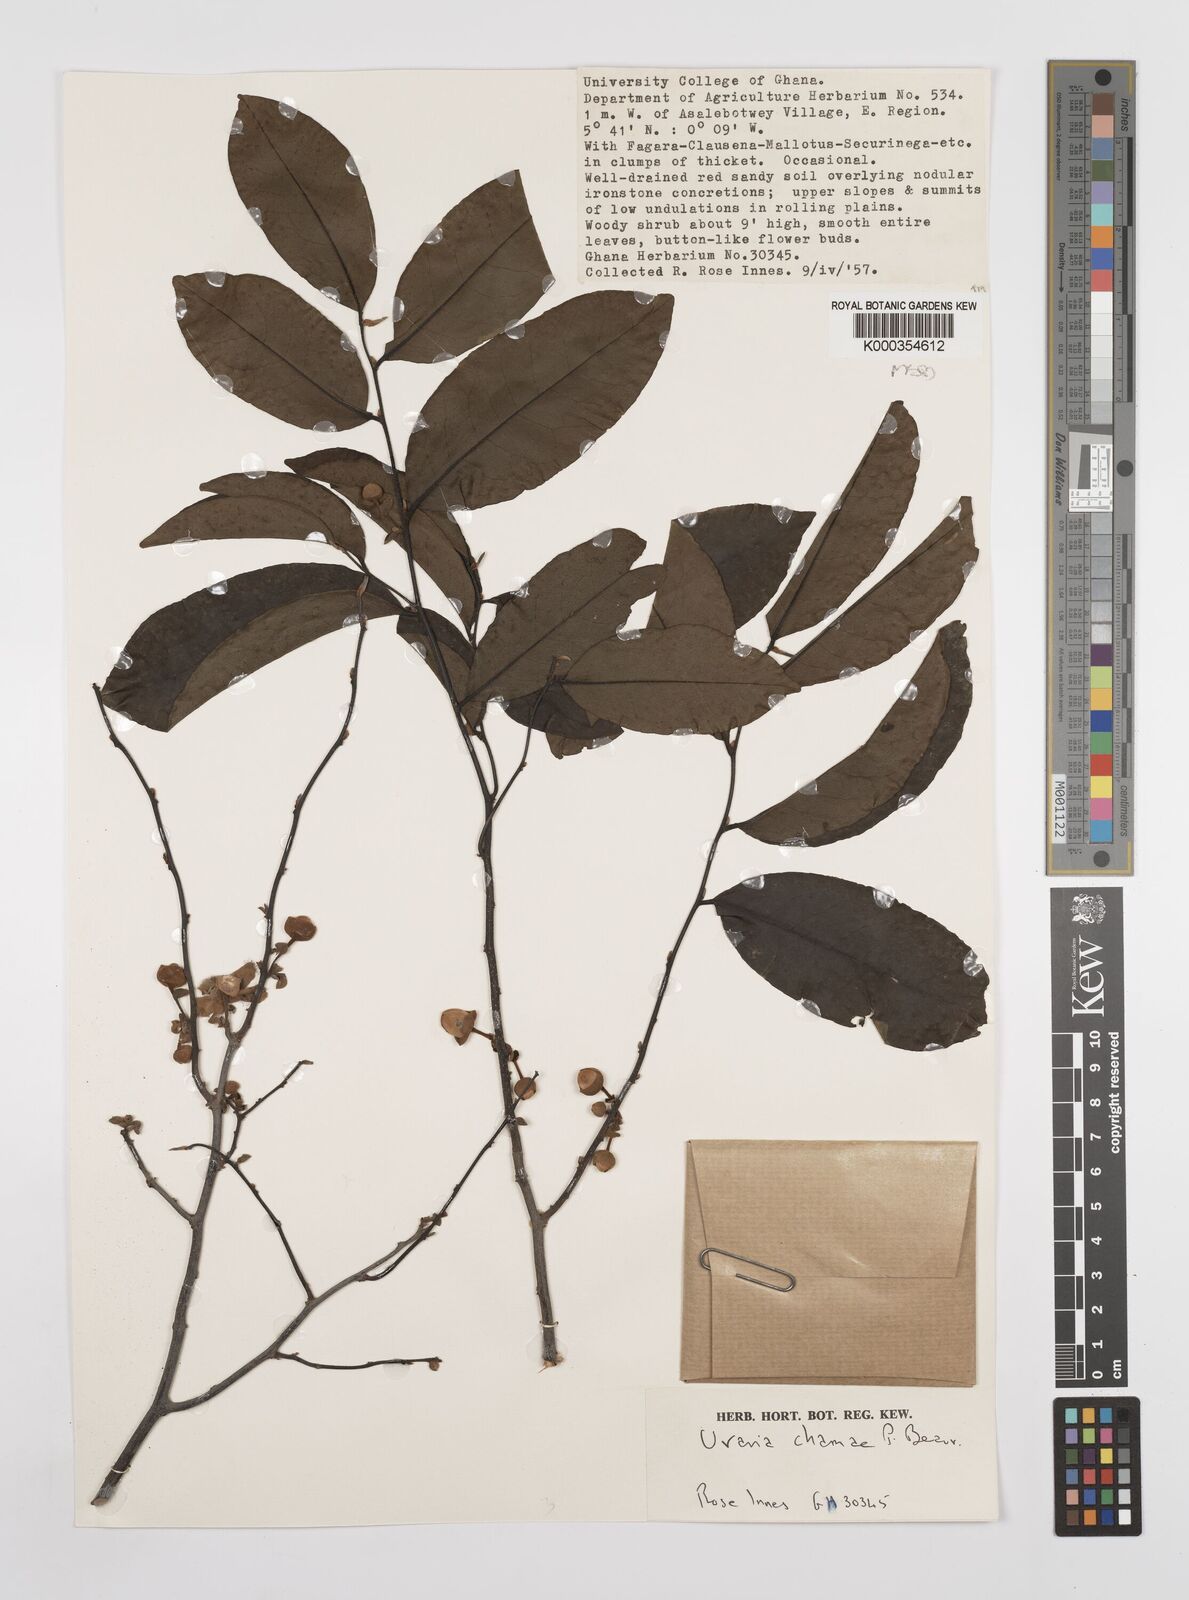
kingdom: Plantae
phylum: Tracheophyta
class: Magnoliopsida
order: Magnoliales
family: Annonaceae
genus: Uvaria
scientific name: Uvaria chamae
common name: Finger-root
